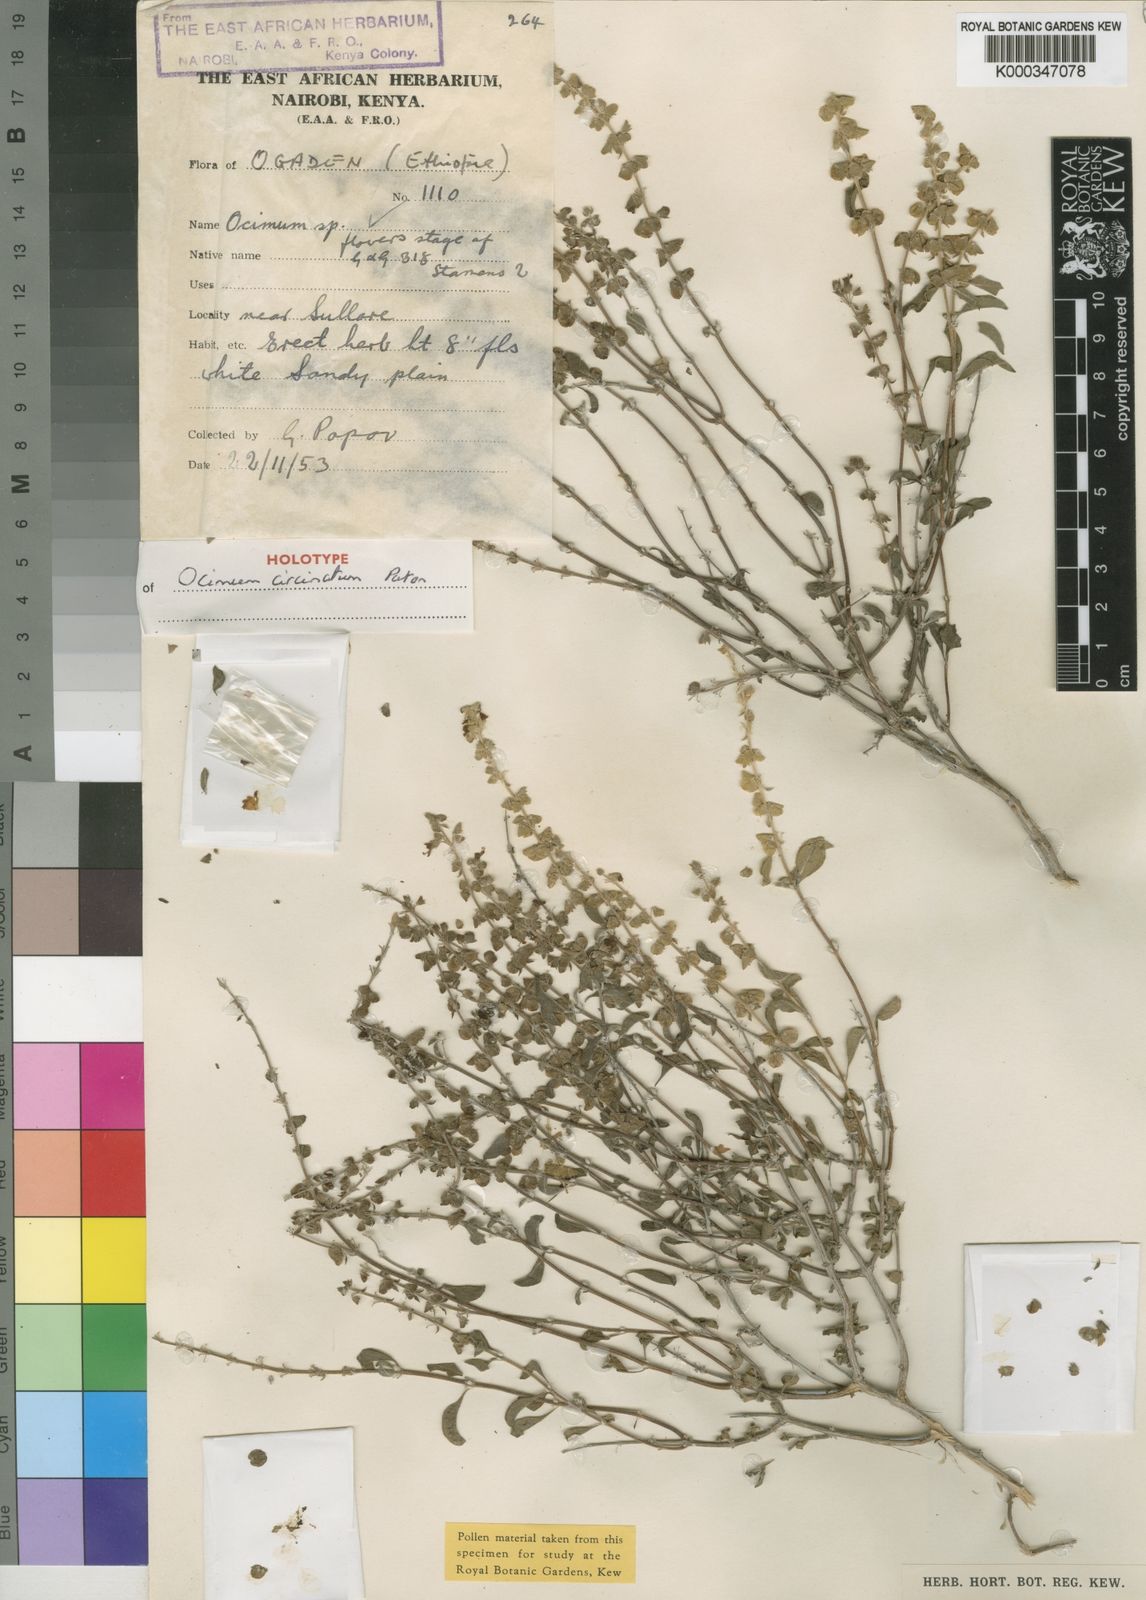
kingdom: Plantae
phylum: Tracheophyta
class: Magnoliopsida
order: Lamiales
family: Lamiaceae
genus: Ocimum
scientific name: Ocimum circinatum
